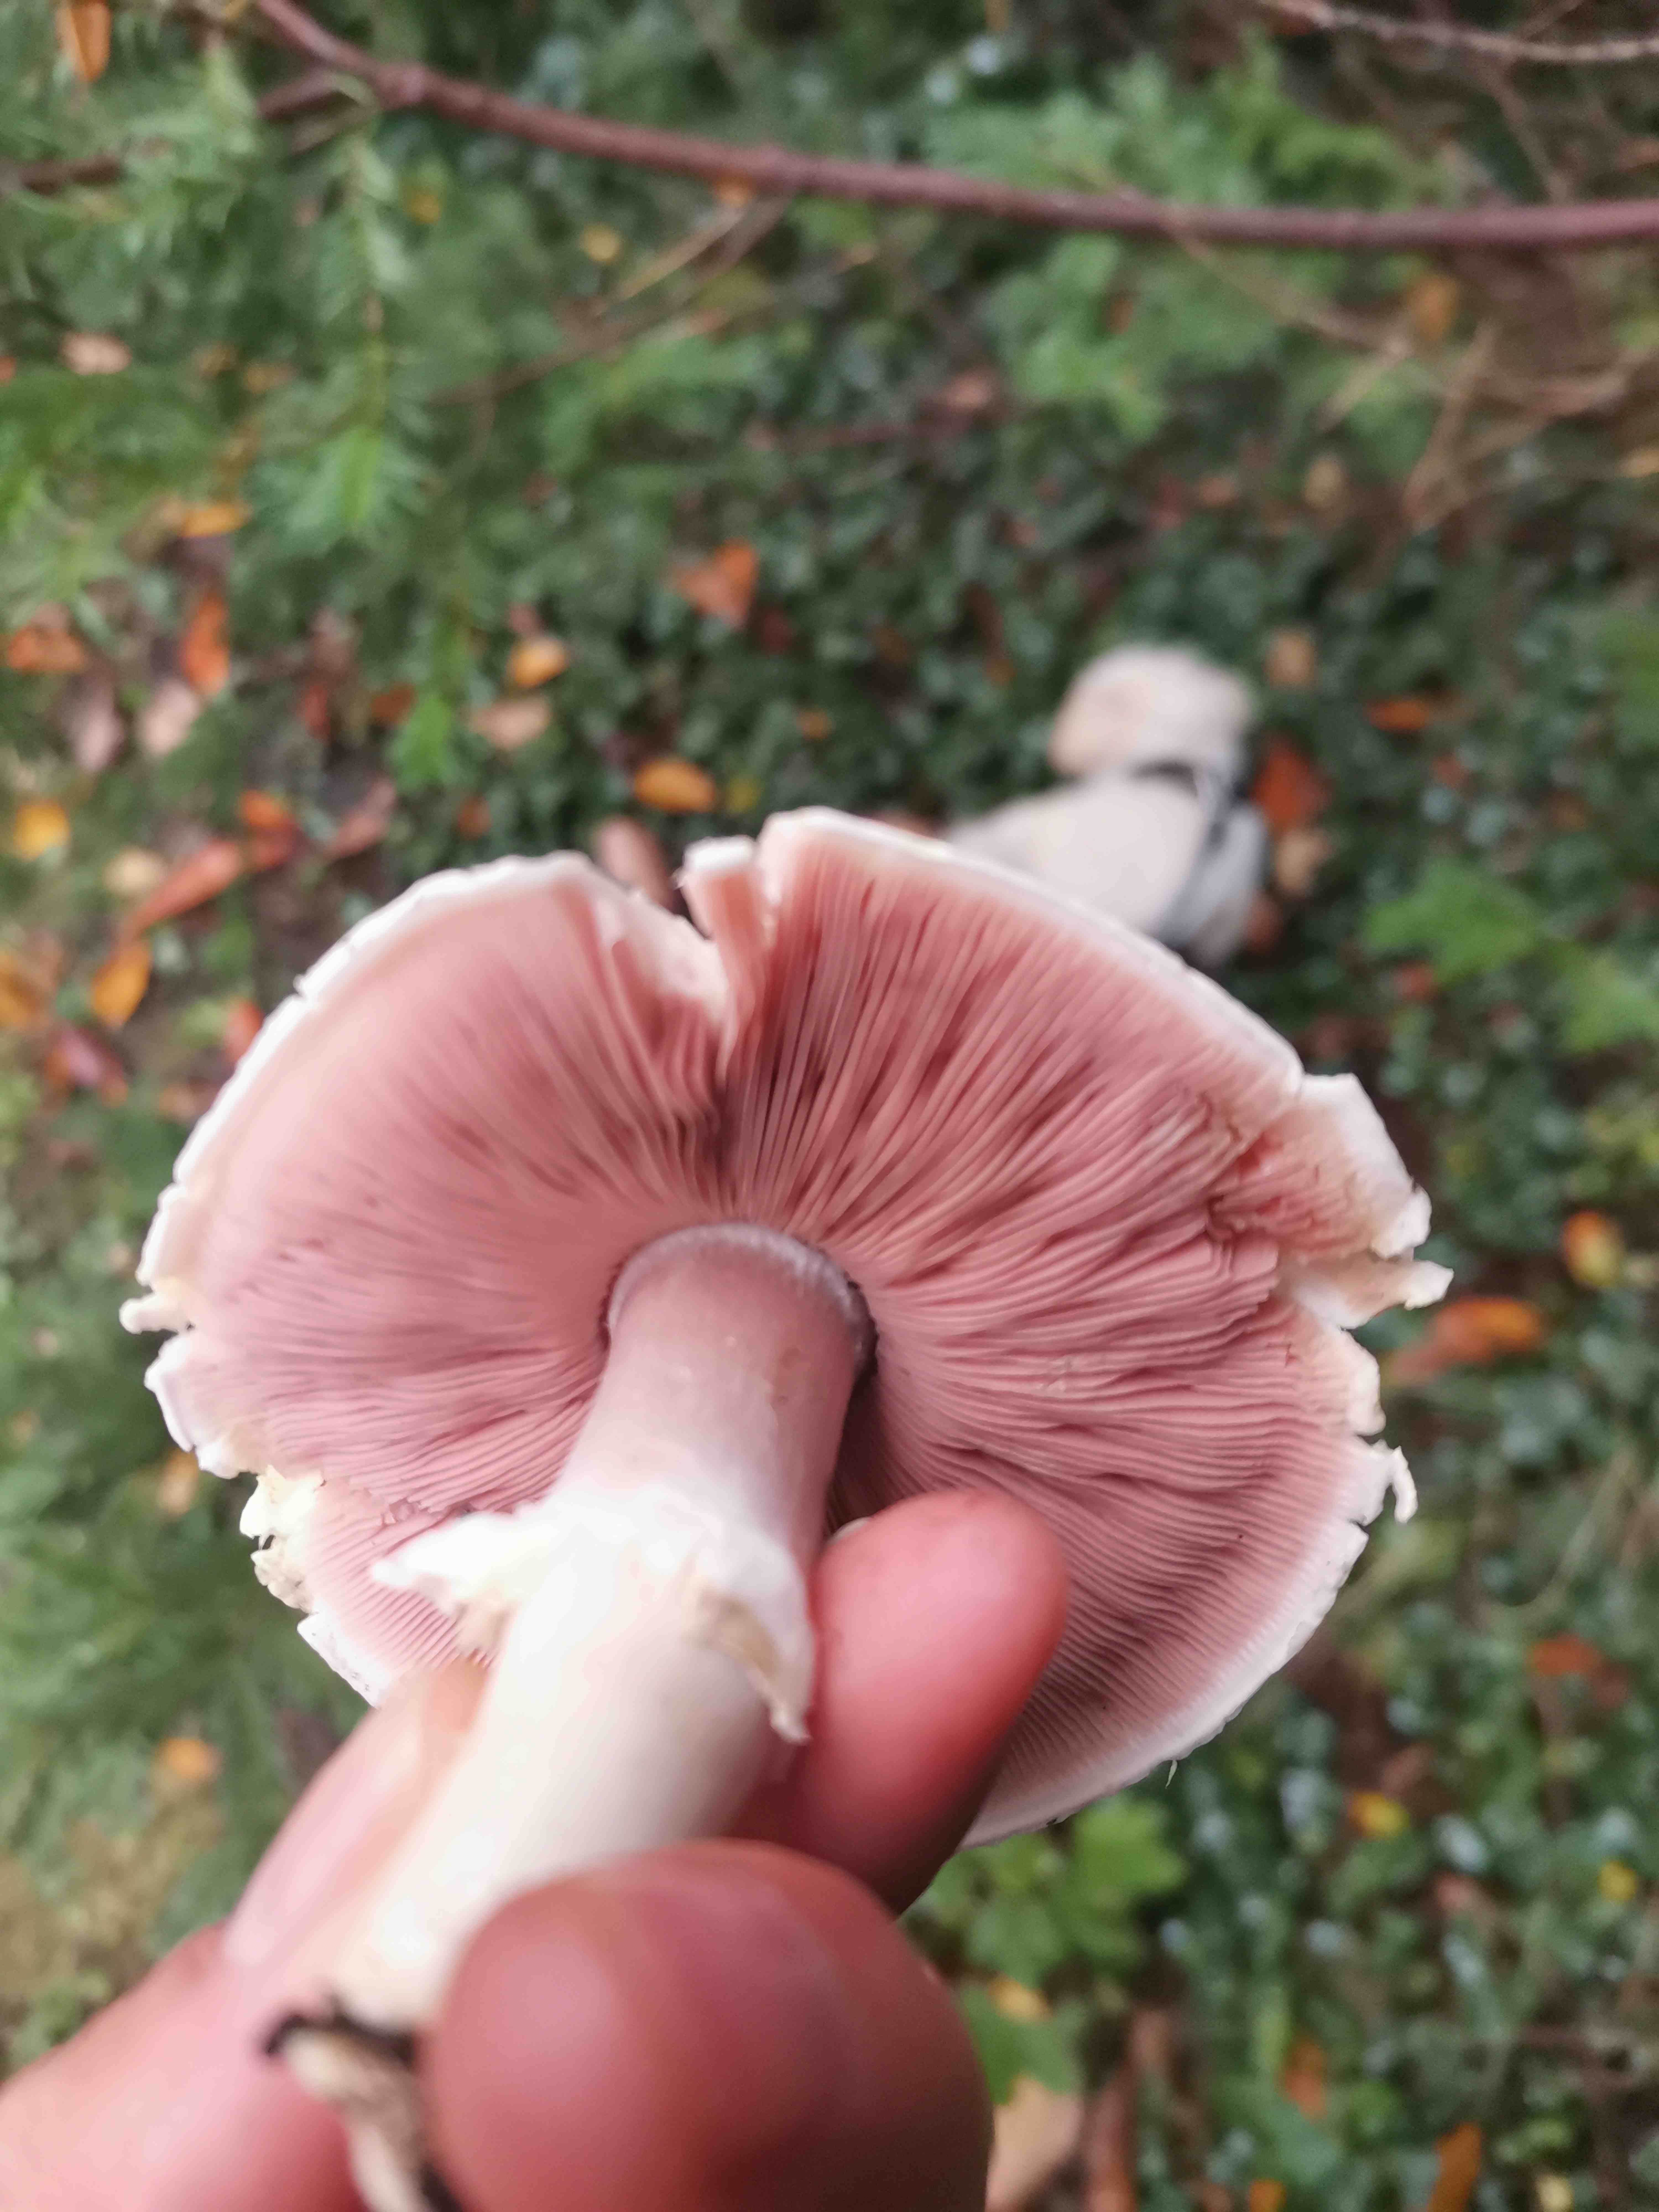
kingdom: Fungi
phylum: Basidiomycota
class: Agaricomycetes
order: Agaricales
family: Agaricaceae
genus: Agaricus
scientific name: Agaricus
